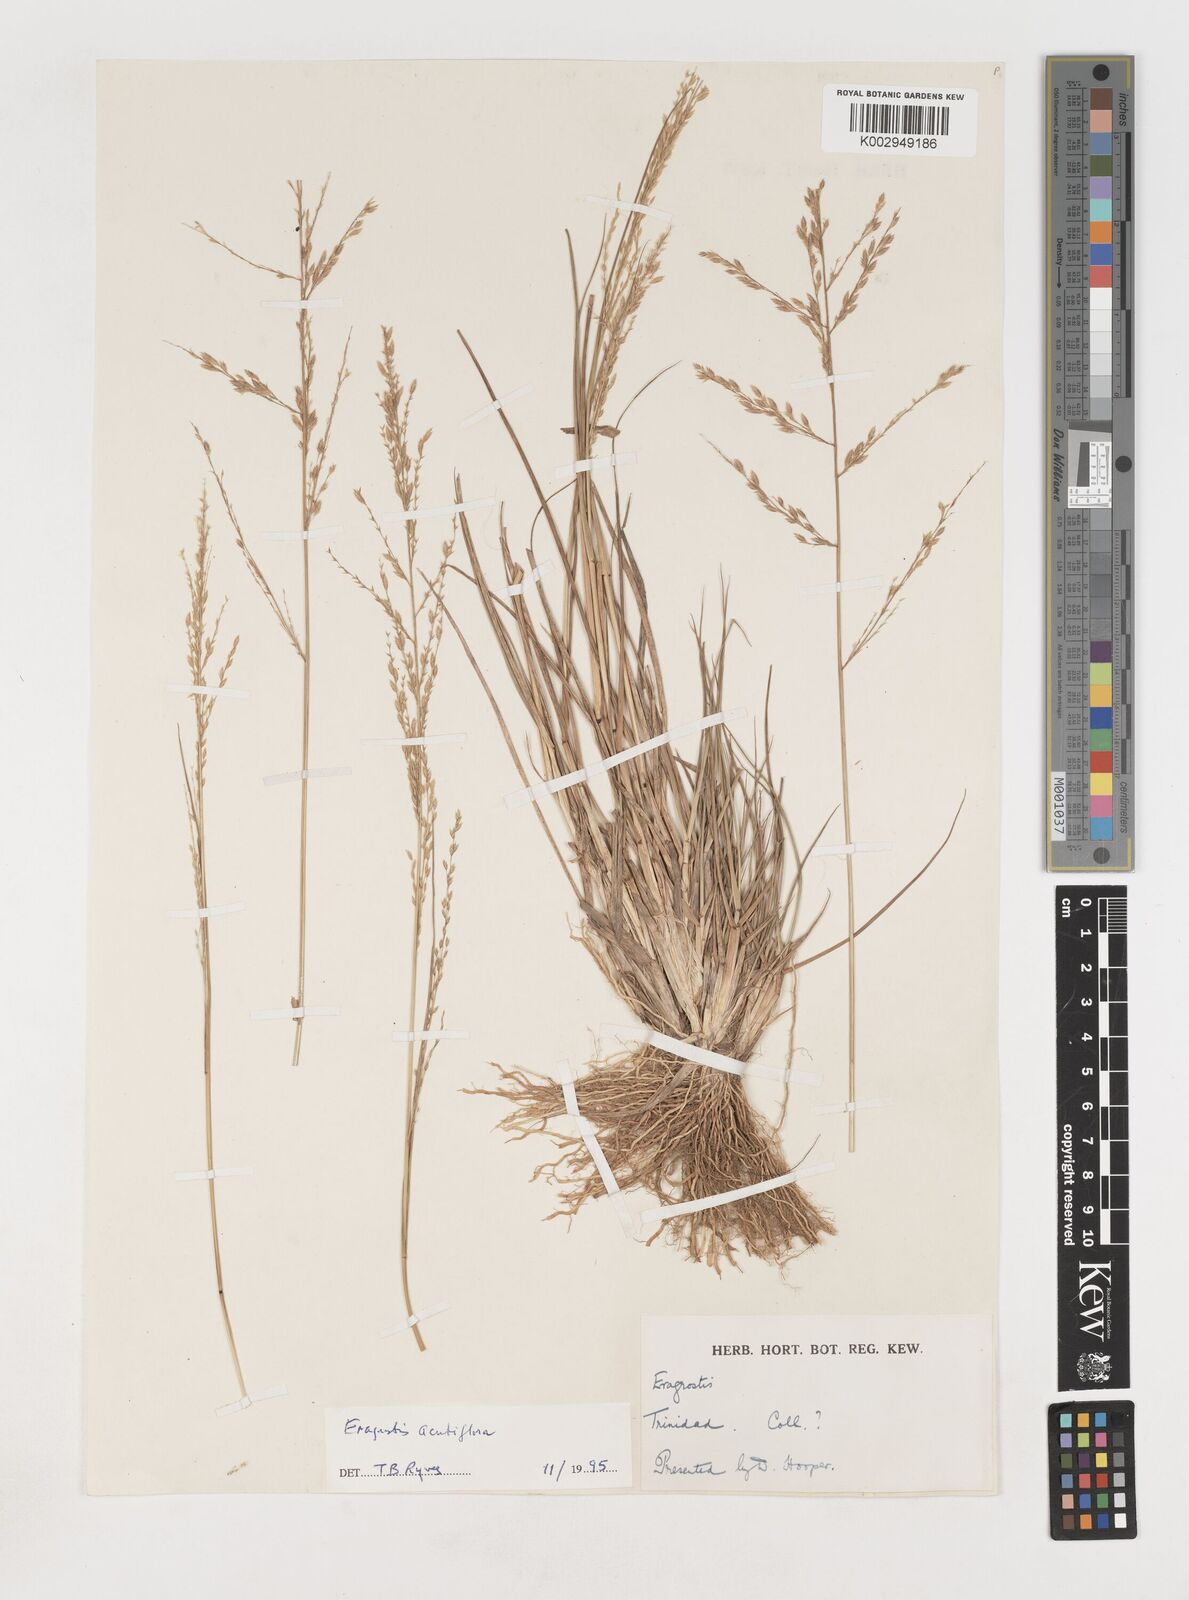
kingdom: Plantae
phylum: Tracheophyta
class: Liliopsida
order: Poales
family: Poaceae
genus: Eragrostis
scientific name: Eragrostis acutiflora
